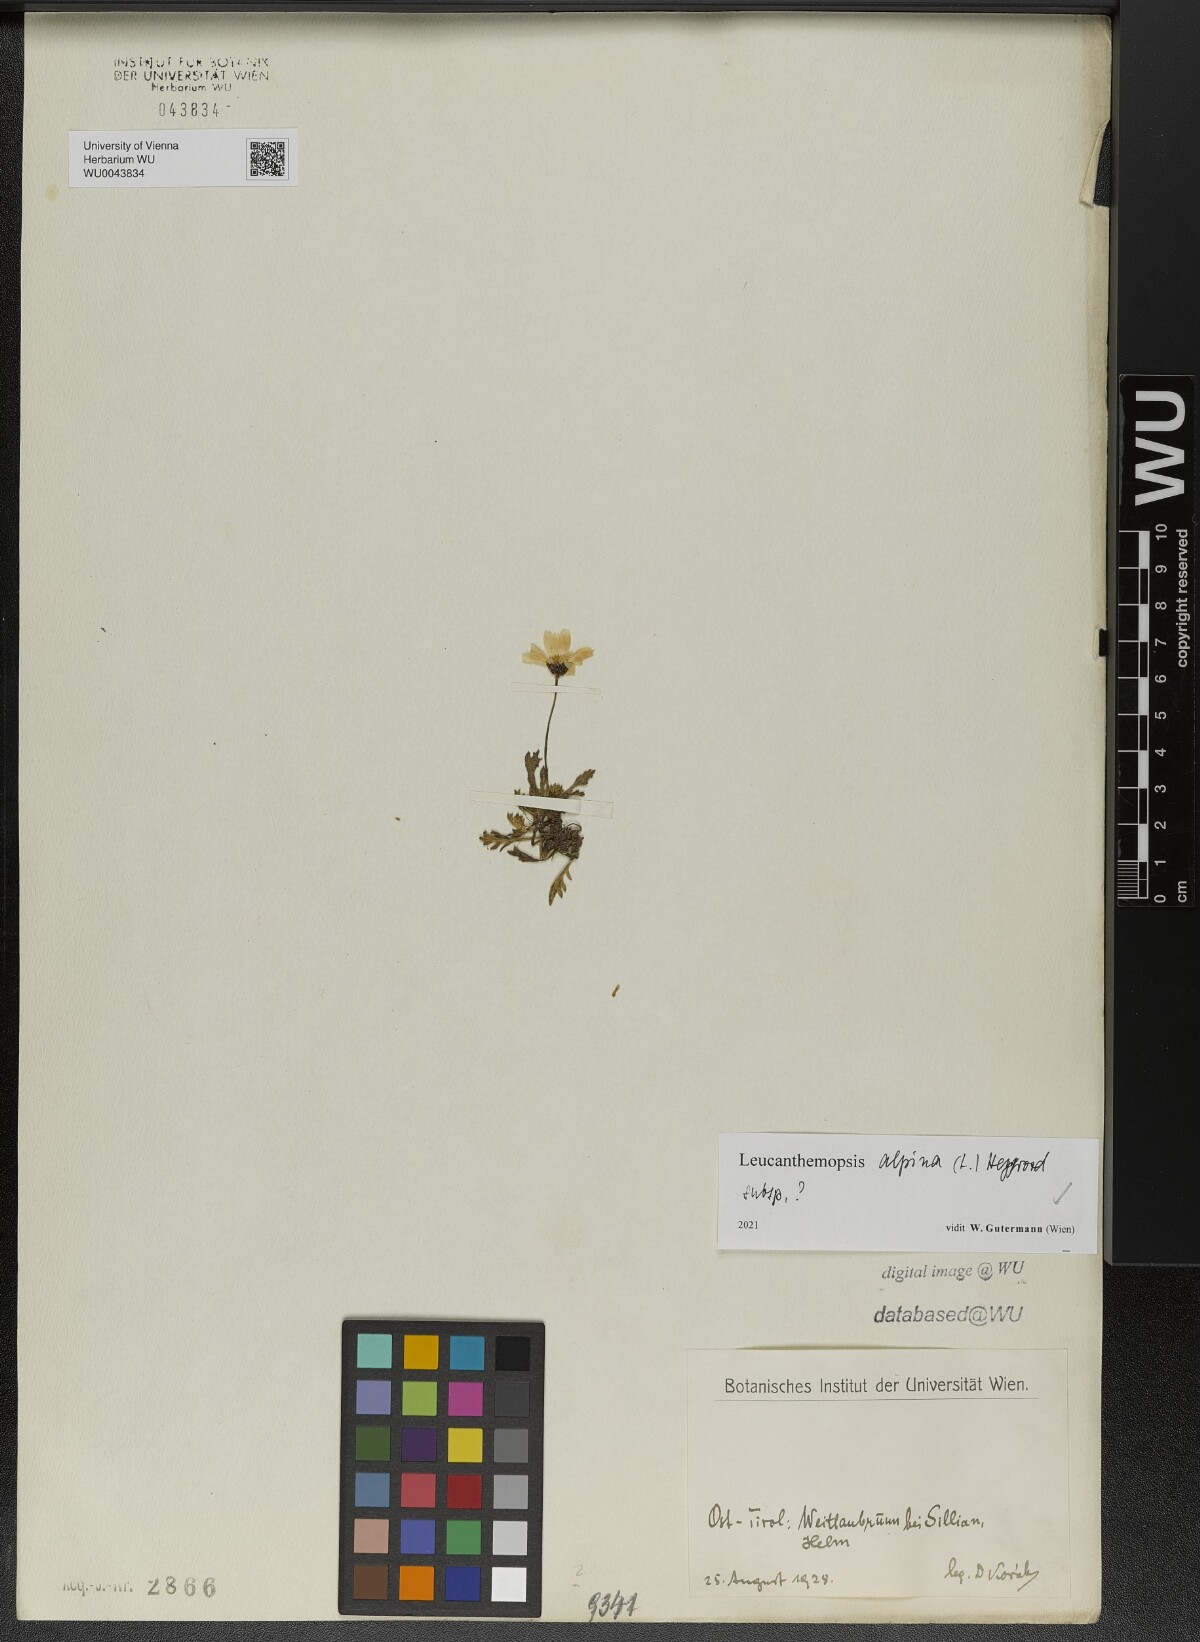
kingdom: Plantae
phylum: Tracheophyta
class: Magnoliopsida
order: Asterales
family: Asteraceae
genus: Leucanthemopsis
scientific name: Leucanthemopsis alpina
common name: Alpine moon daisy
